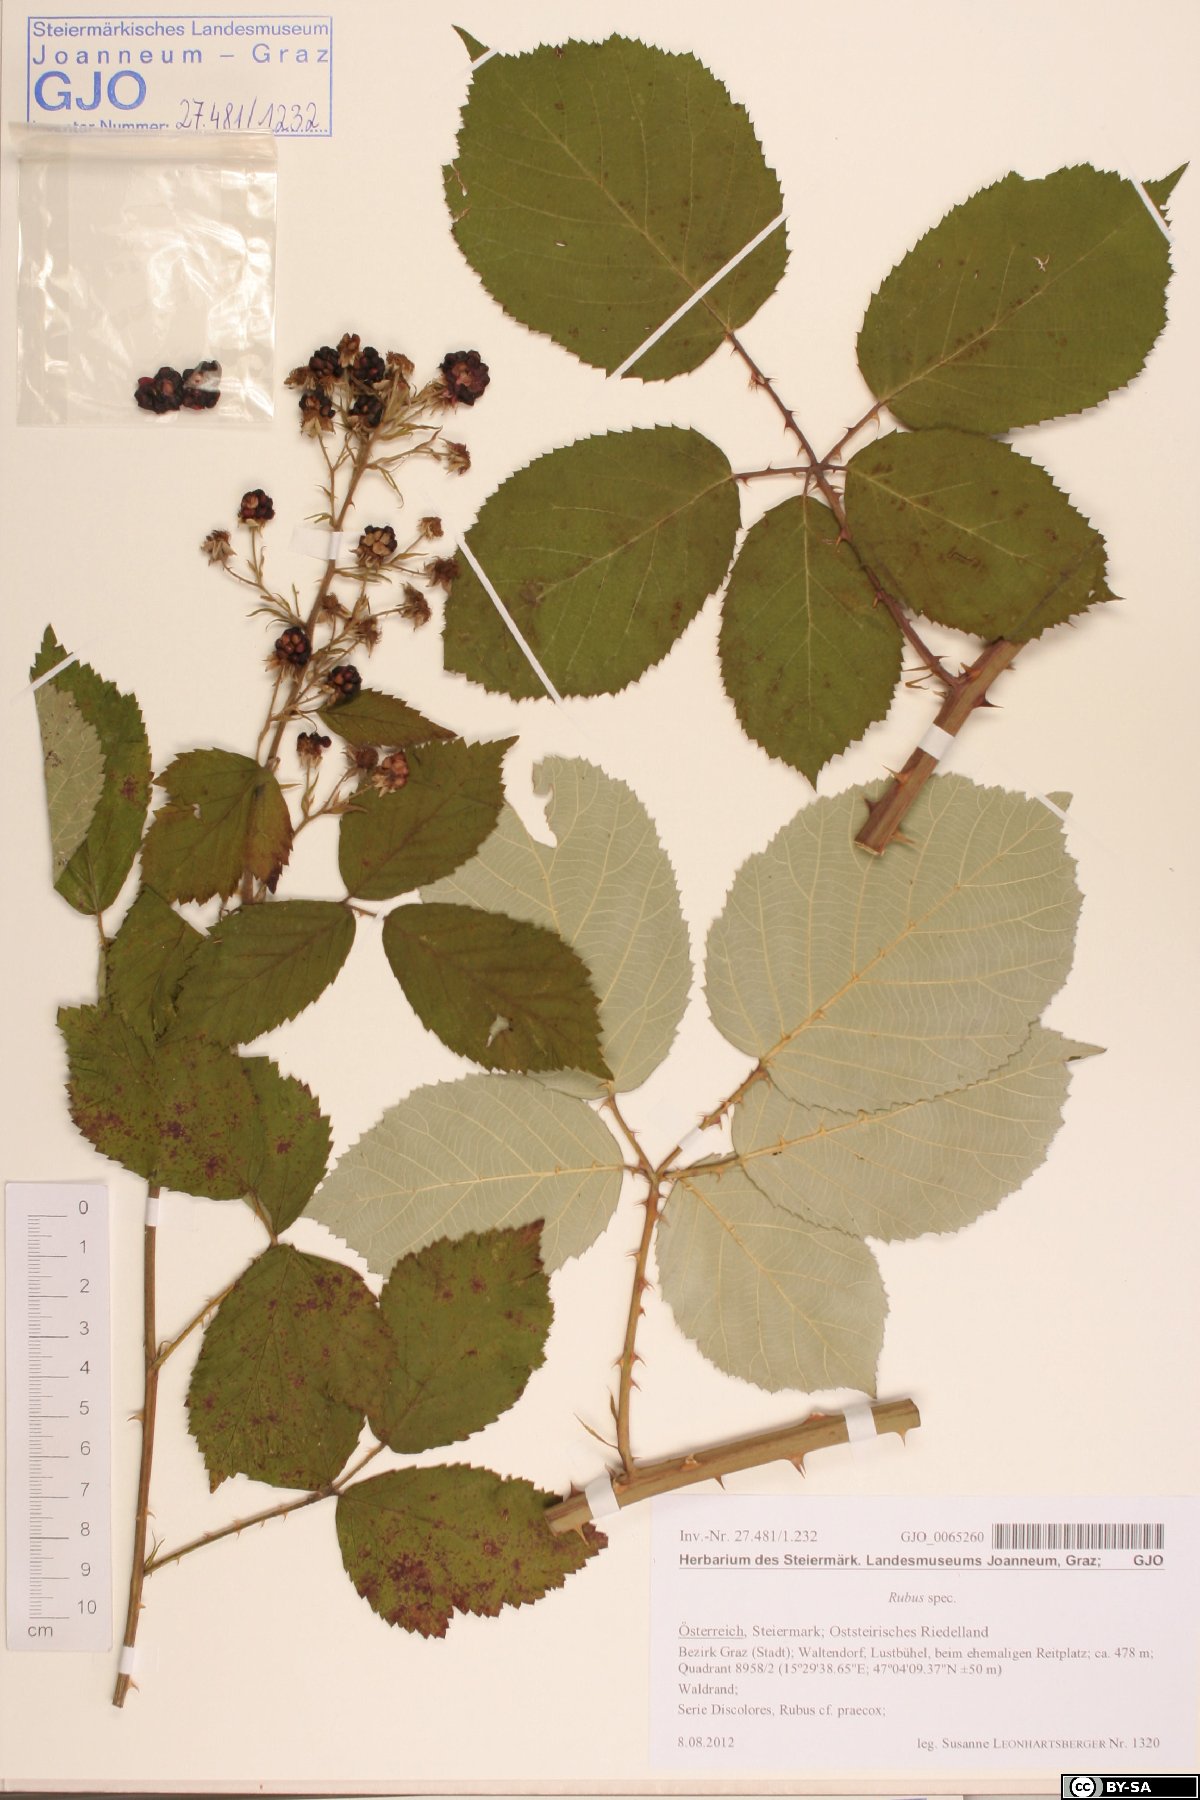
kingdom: Plantae
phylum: Tracheophyta
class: Magnoliopsida
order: Rosales
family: Rosaceae
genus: Rubus
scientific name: Rubus
